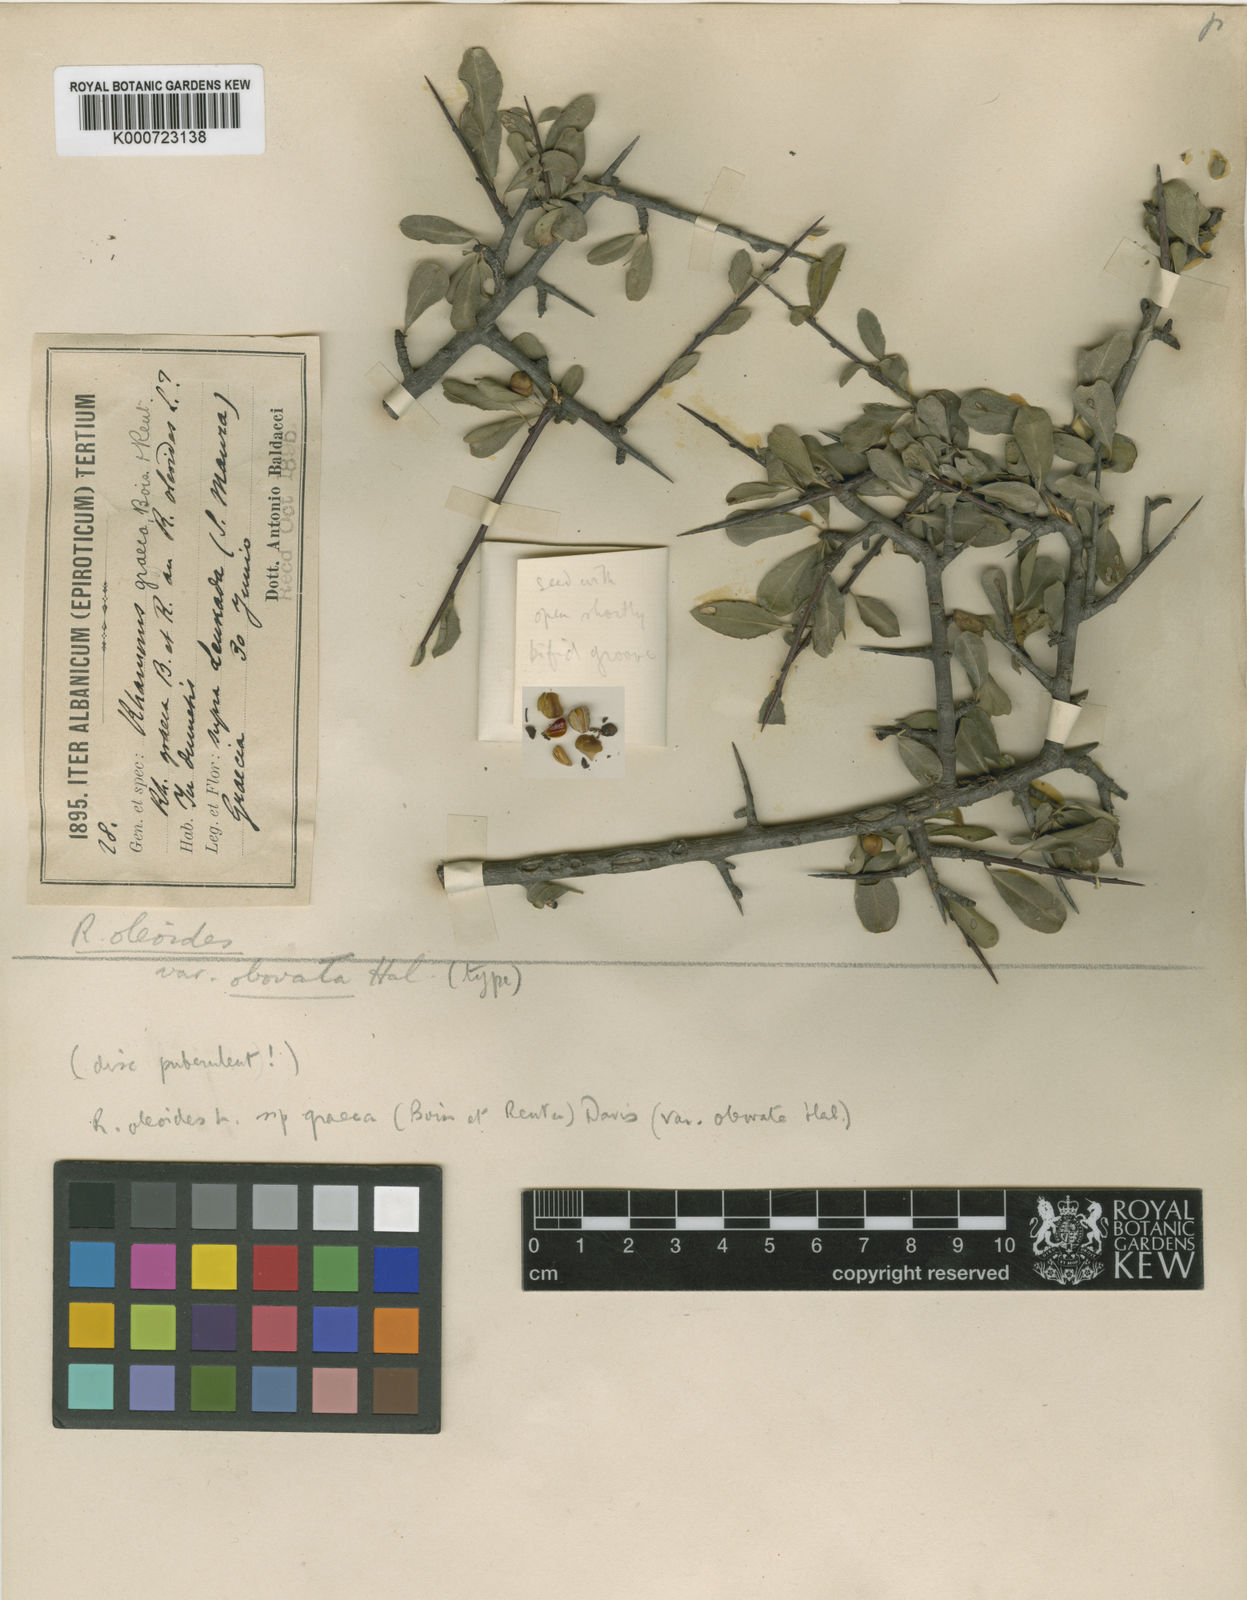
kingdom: Plantae
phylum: Tracheophyta
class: Magnoliopsida
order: Rosales
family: Rhamnaceae
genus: Rhamnus
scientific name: Rhamnus oleoides
